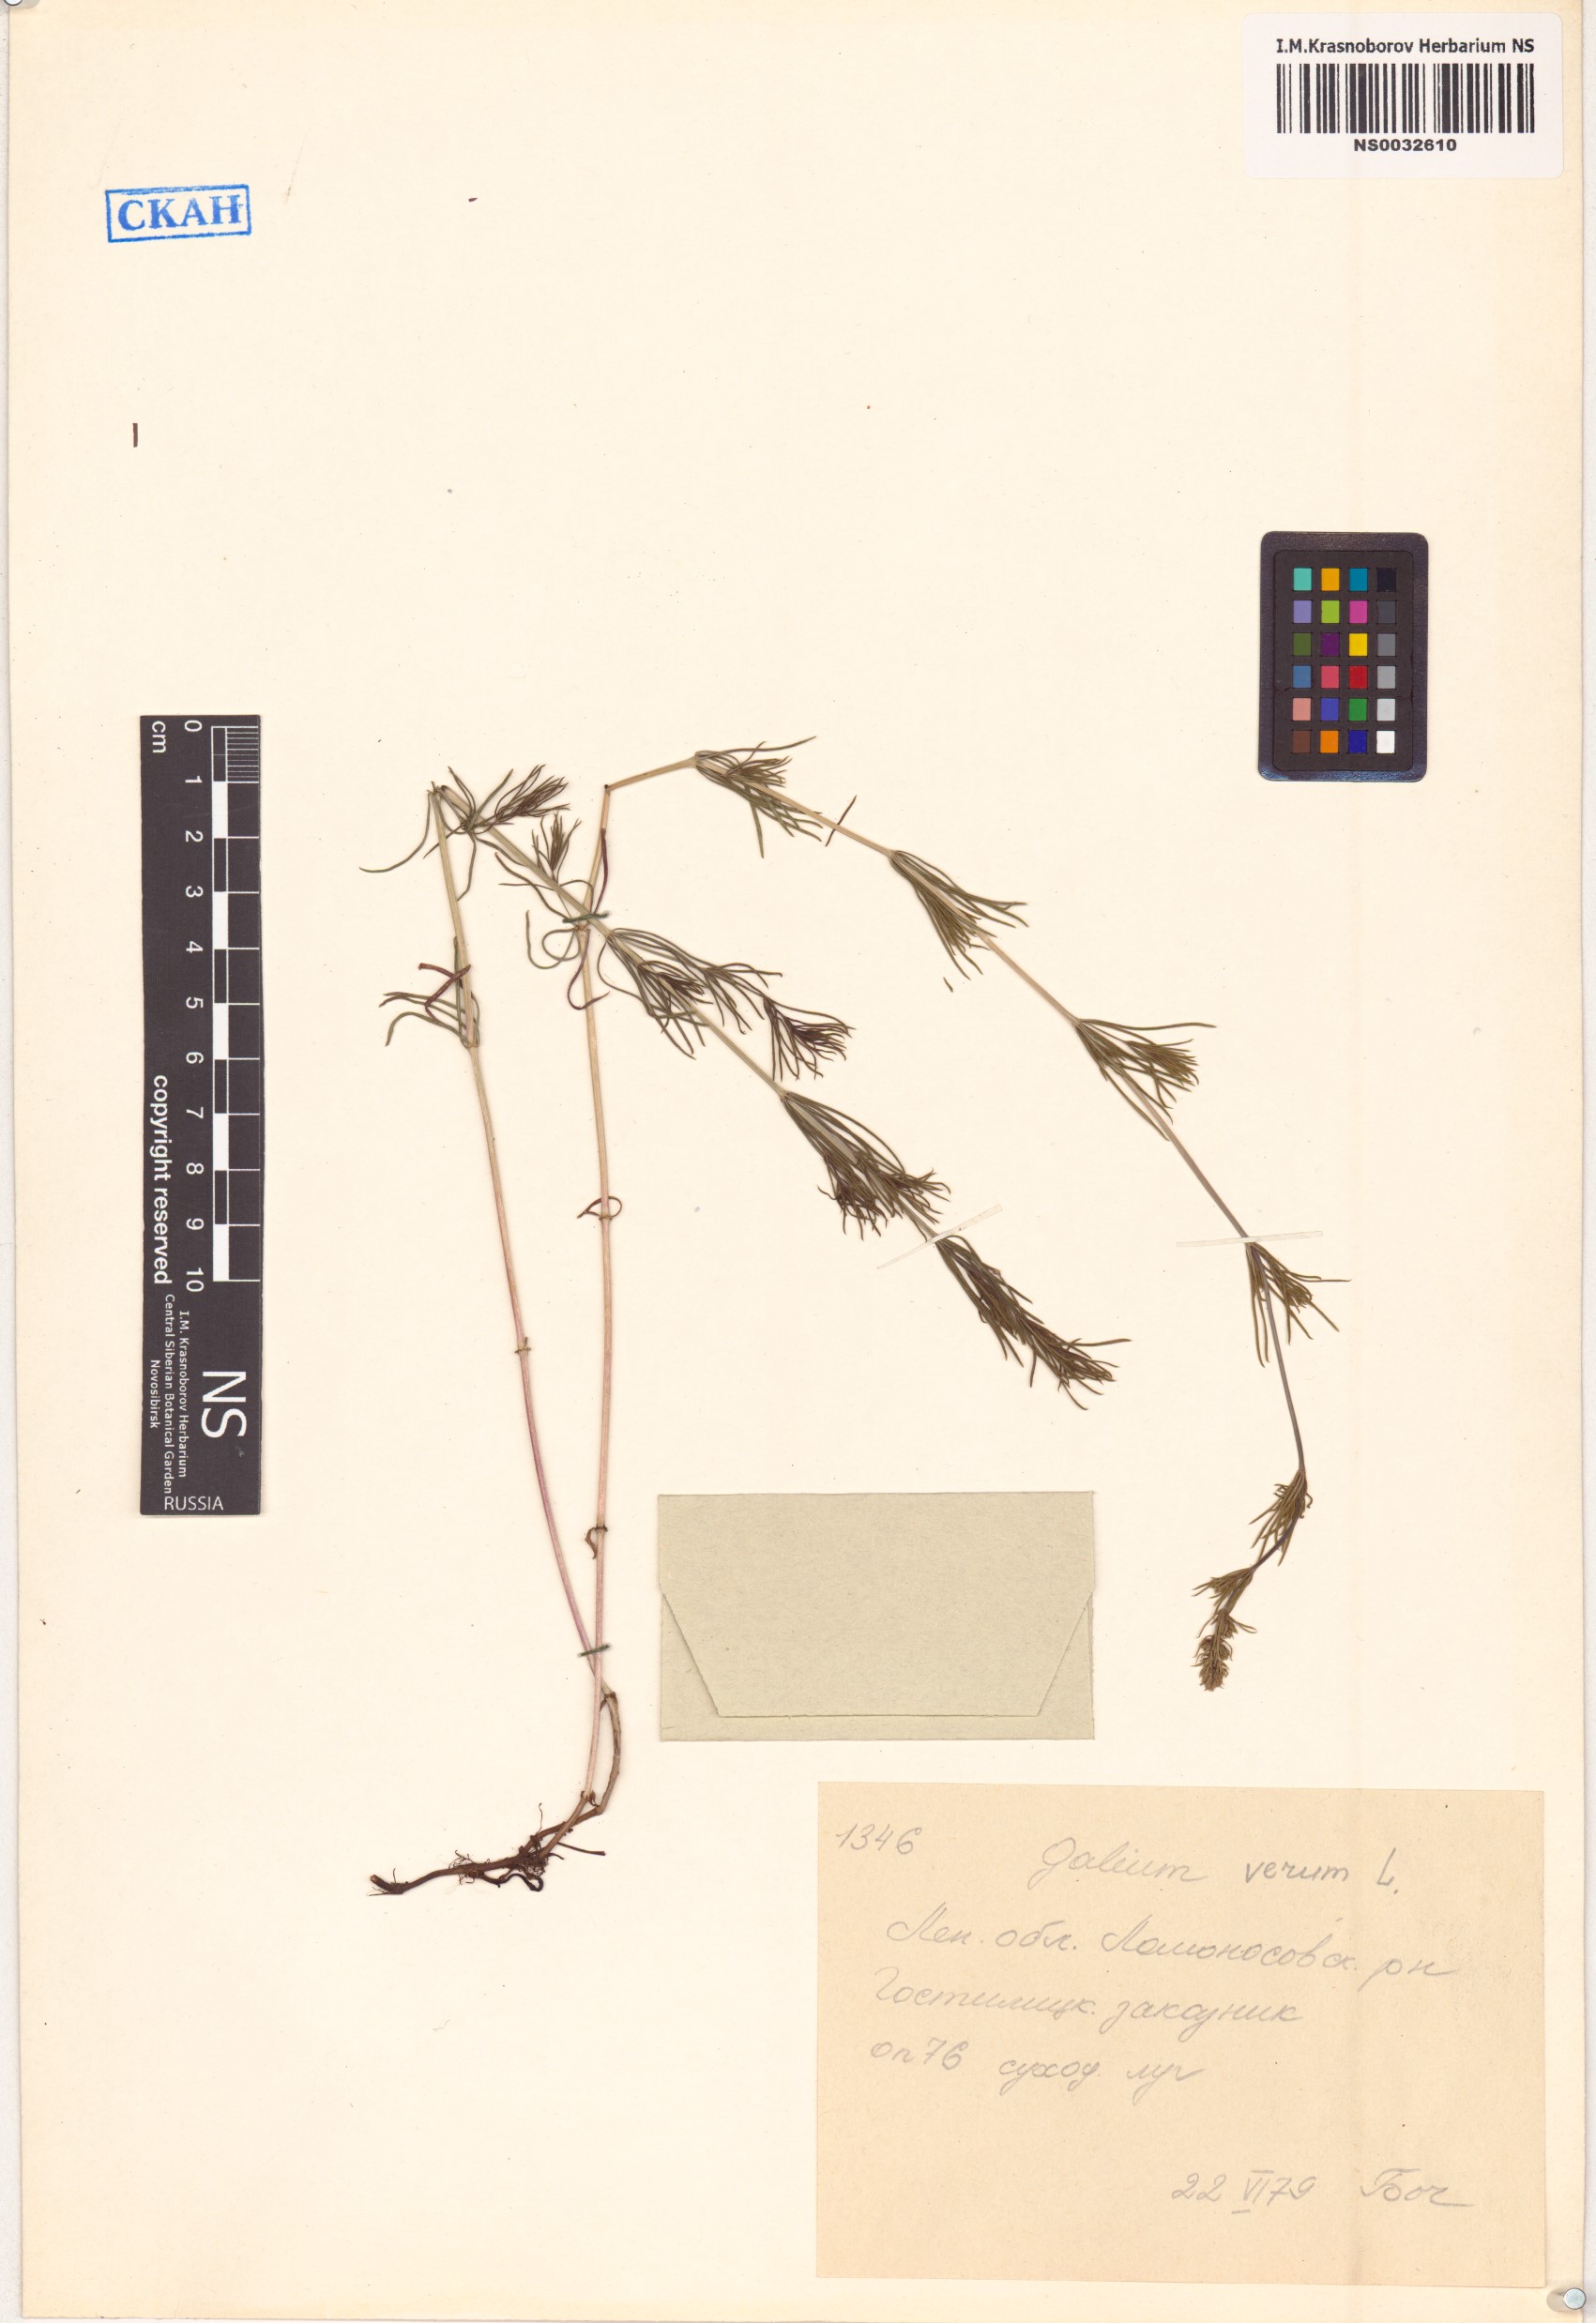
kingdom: Plantae
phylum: Tracheophyta
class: Magnoliopsida
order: Gentianales
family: Rubiaceae
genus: Galium
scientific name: Galium verum
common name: Lady's bedstraw
